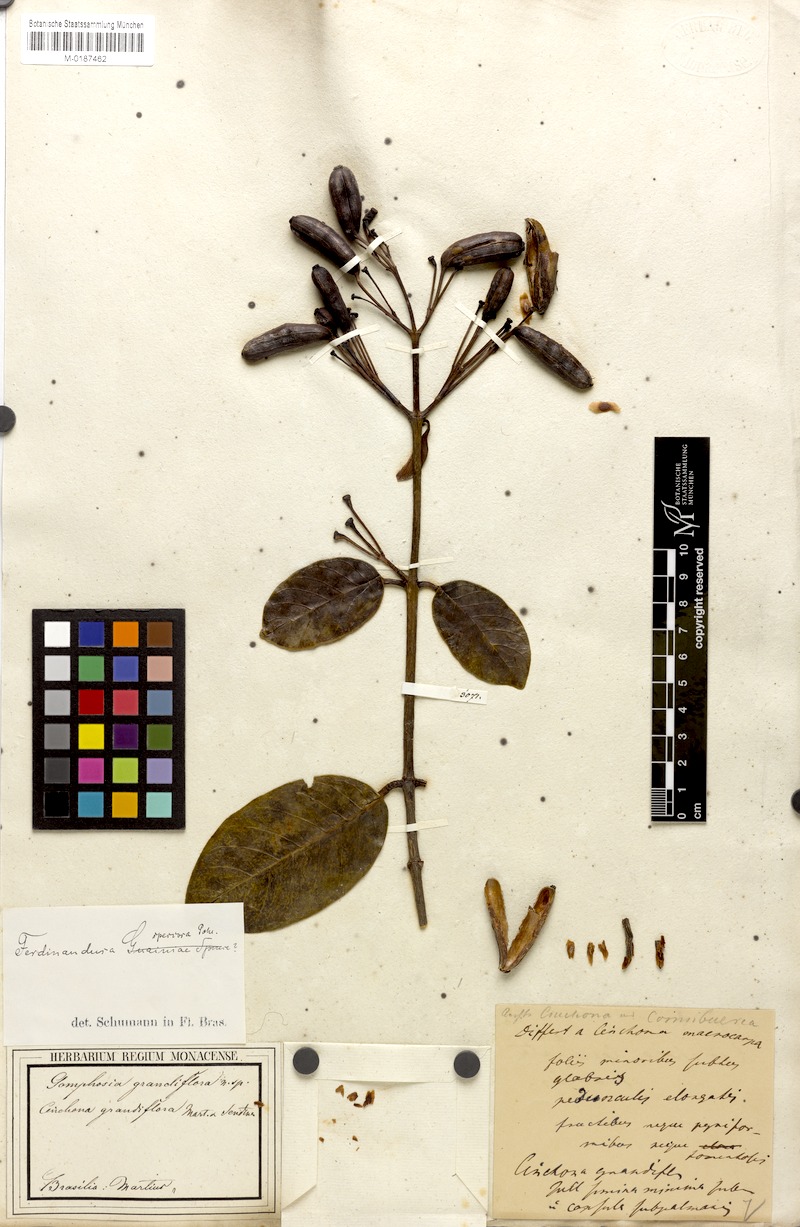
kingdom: Plantae
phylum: Tracheophyta
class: Magnoliopsida
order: Gentianales
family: Rubiaceae
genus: Ferdinandusa
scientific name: Ferdinandusa speciosa
